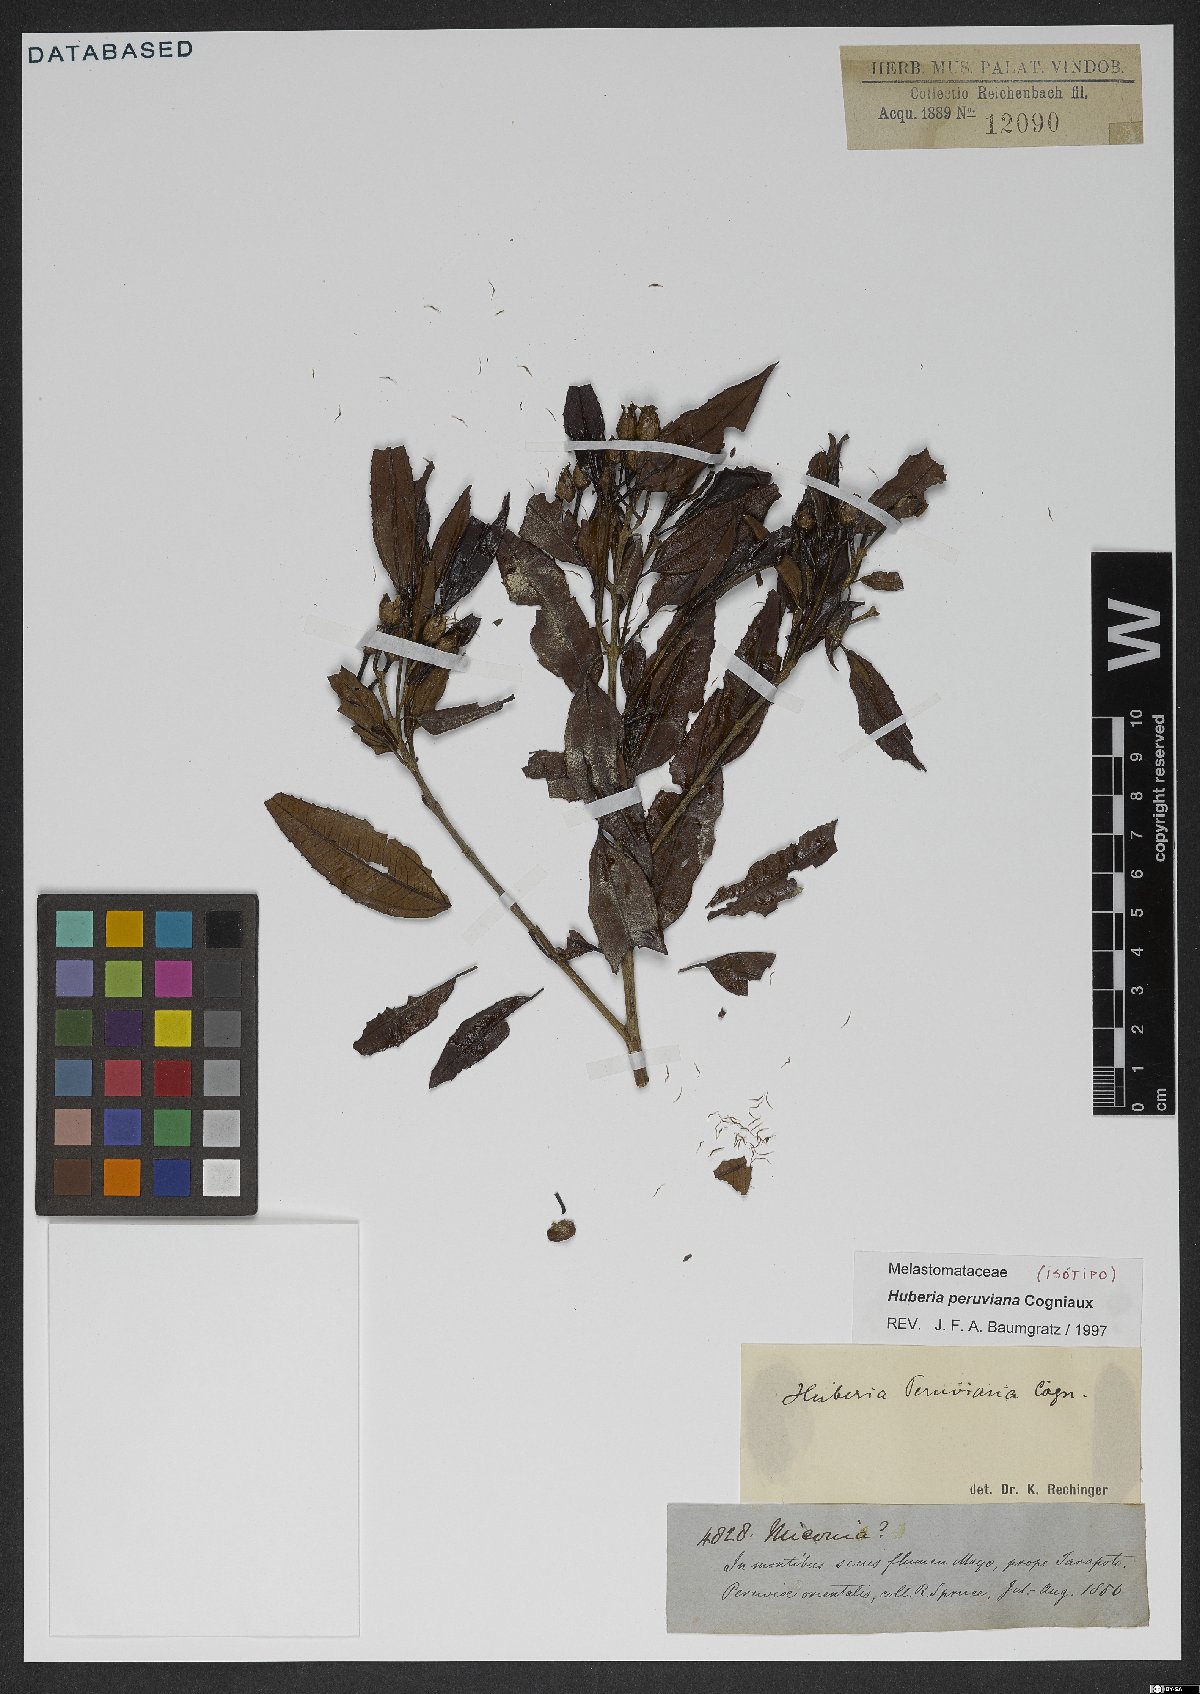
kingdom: Plantae
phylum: Tracheophyta
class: Magnoliopsida
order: Myrtales
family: Melastomataceae
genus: Huberia
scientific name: Huberia peruviana
